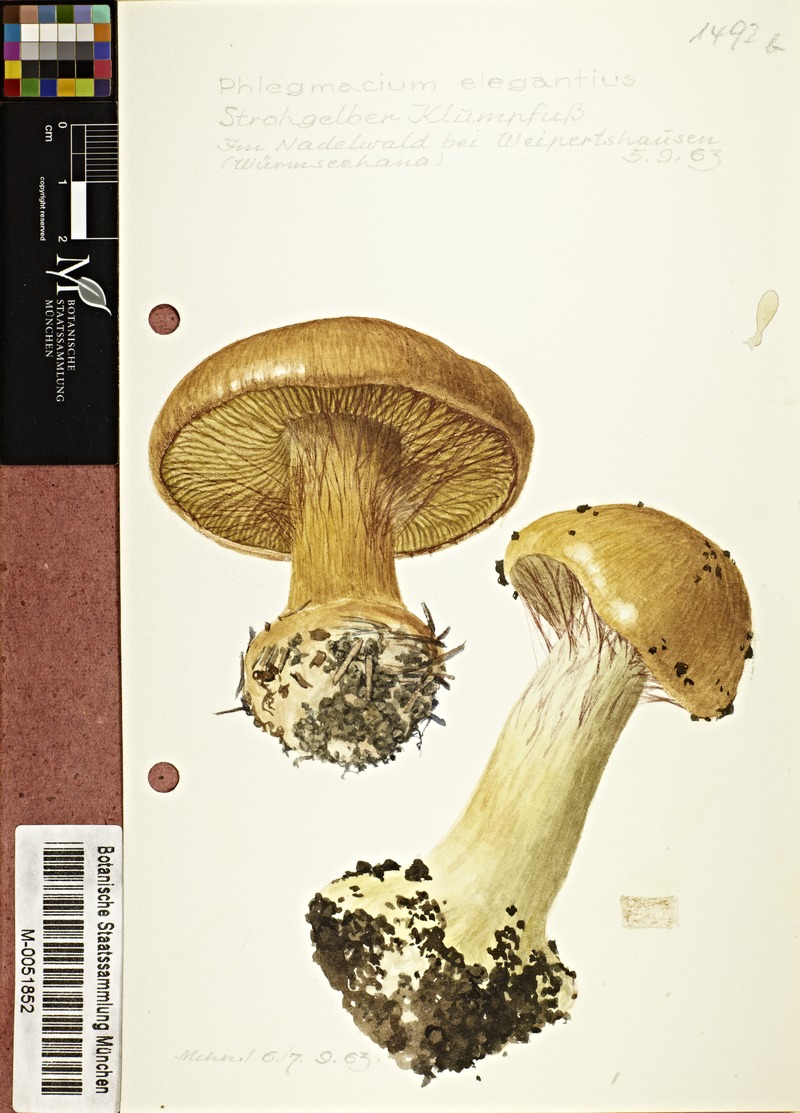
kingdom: Fungi
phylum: Basidiomycota
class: Agaricomycetes
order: Agaricales
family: Cortinariaceae
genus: Calonarius
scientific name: Calonarius elegantior
